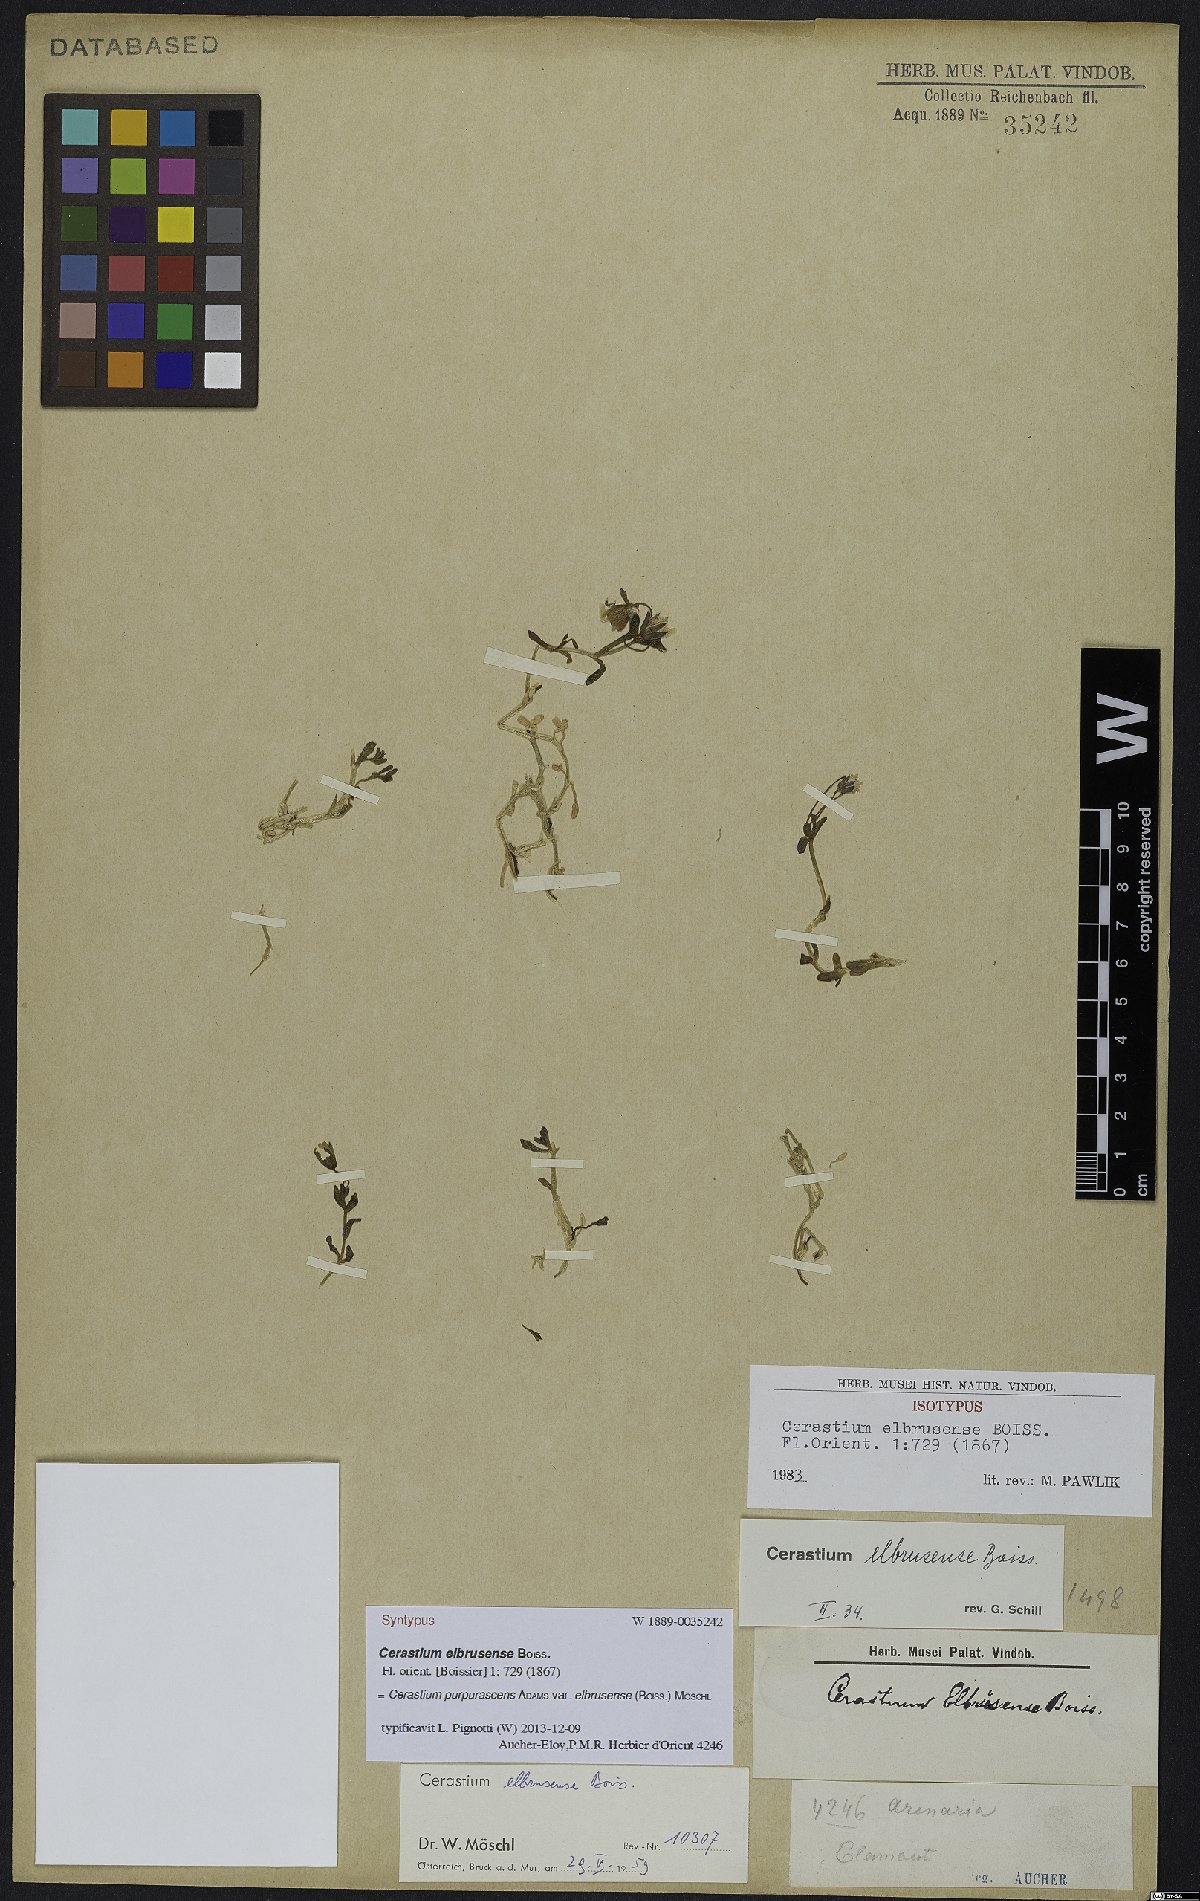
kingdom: Plantae
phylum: Tracheophyta
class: Magnoliopsida
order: Caryophyllales
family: Caryophyllaceae
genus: Cerastium
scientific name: Cerastium elbrusense
